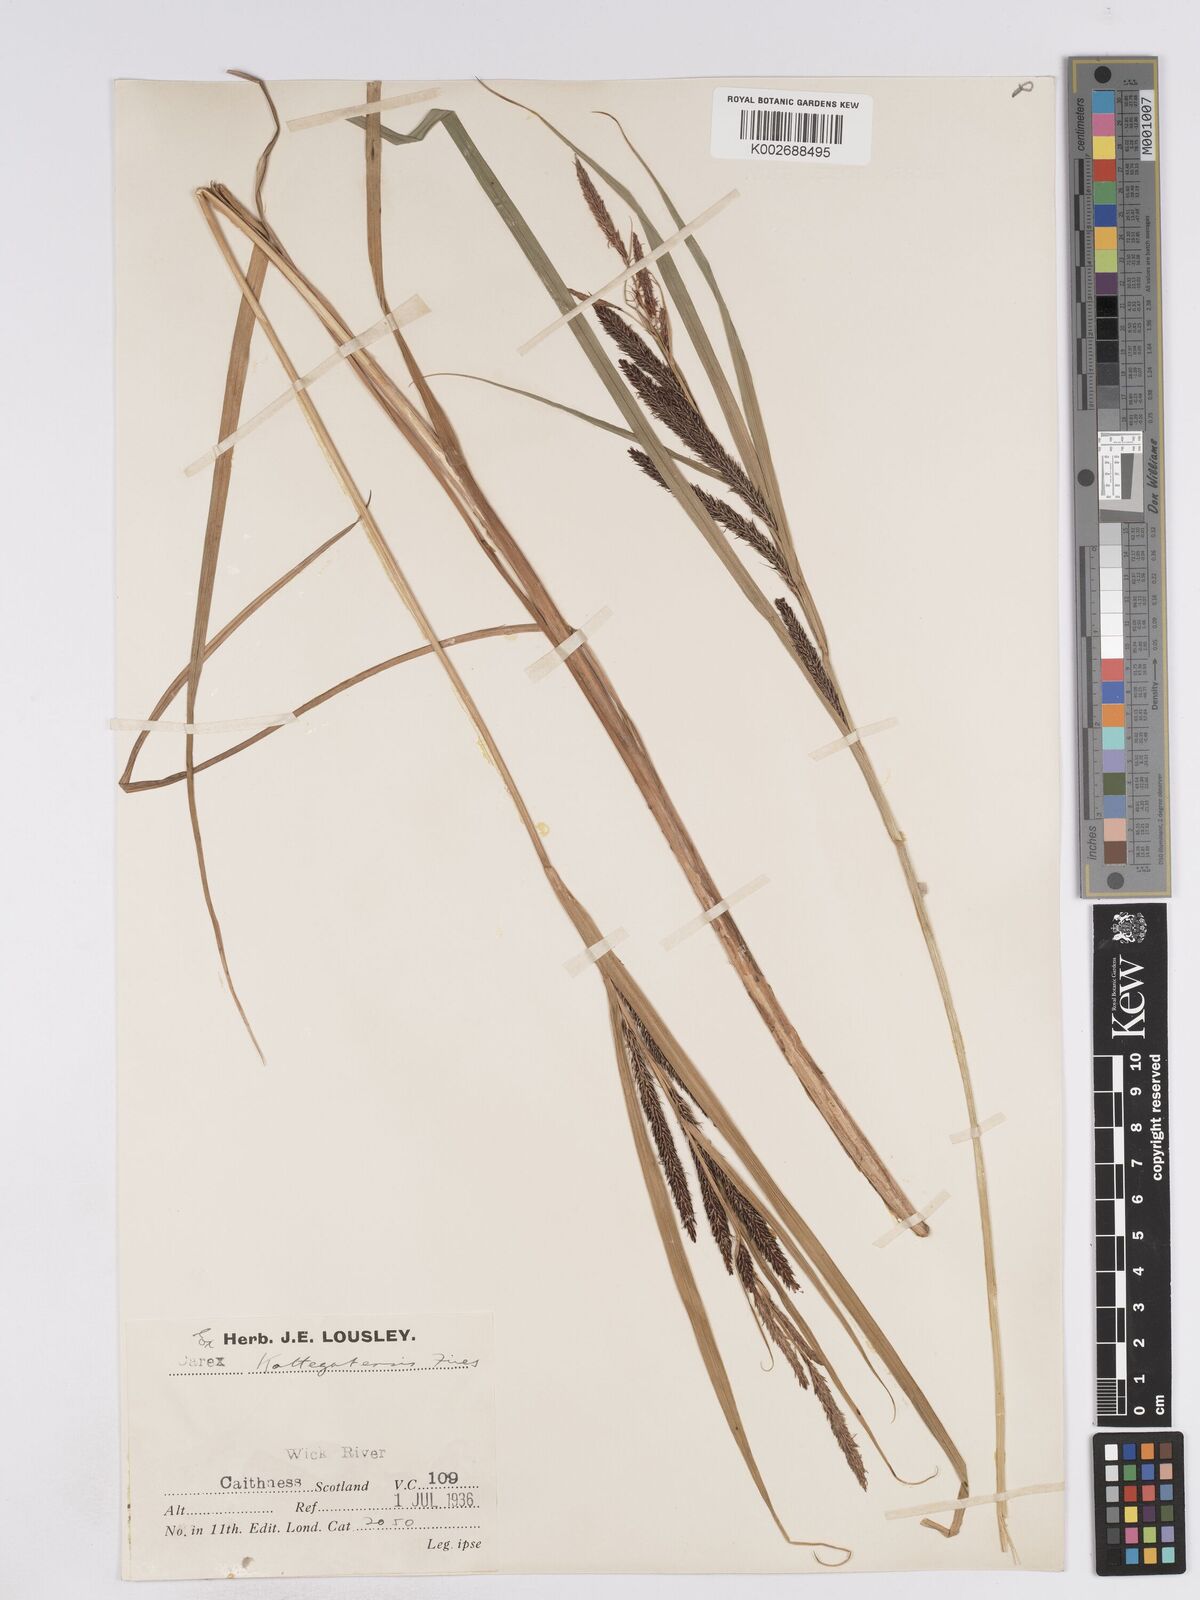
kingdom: Plantae
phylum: Tracheophyta
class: Liliopsida
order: Poales
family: Cyperaceae
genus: Carex
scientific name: Carex recta
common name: Estuarine sedge
